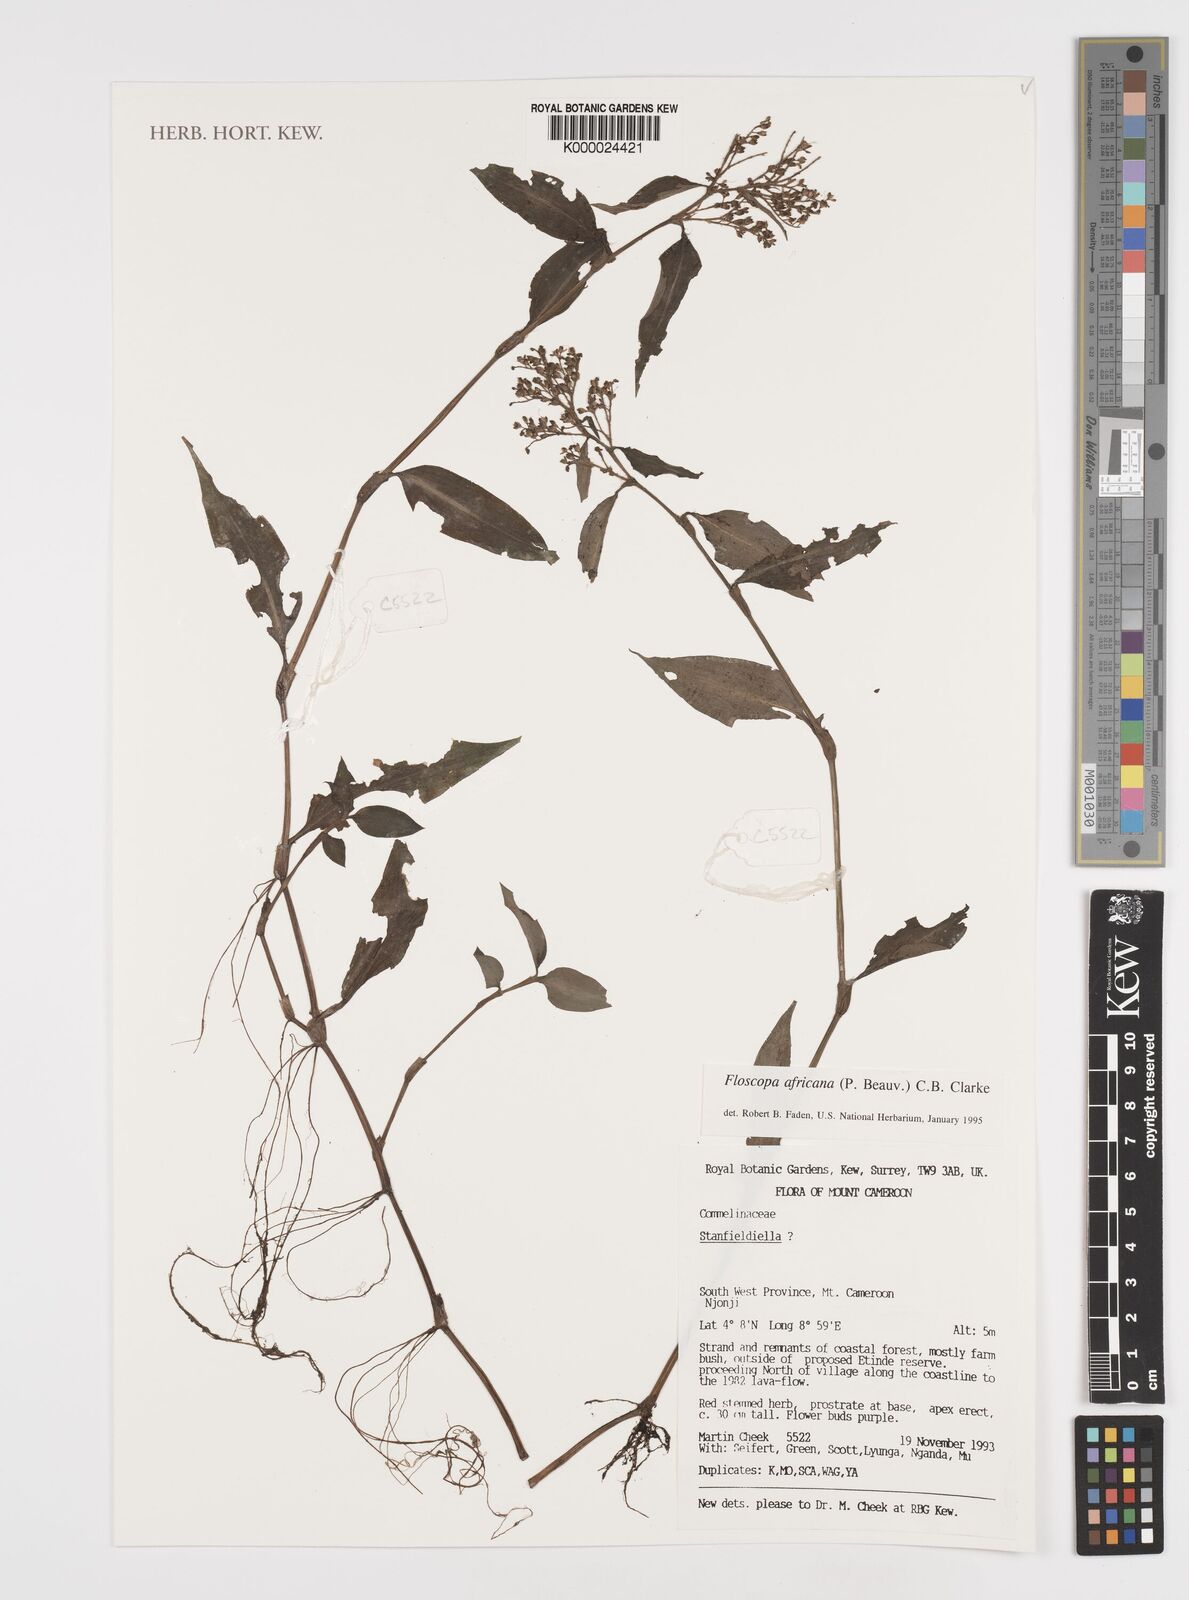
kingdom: Plantae
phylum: Tracheophyta
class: Liliopsida
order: Commelinales
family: Commelinaceae
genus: Floscopa
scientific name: Floscopa africana
